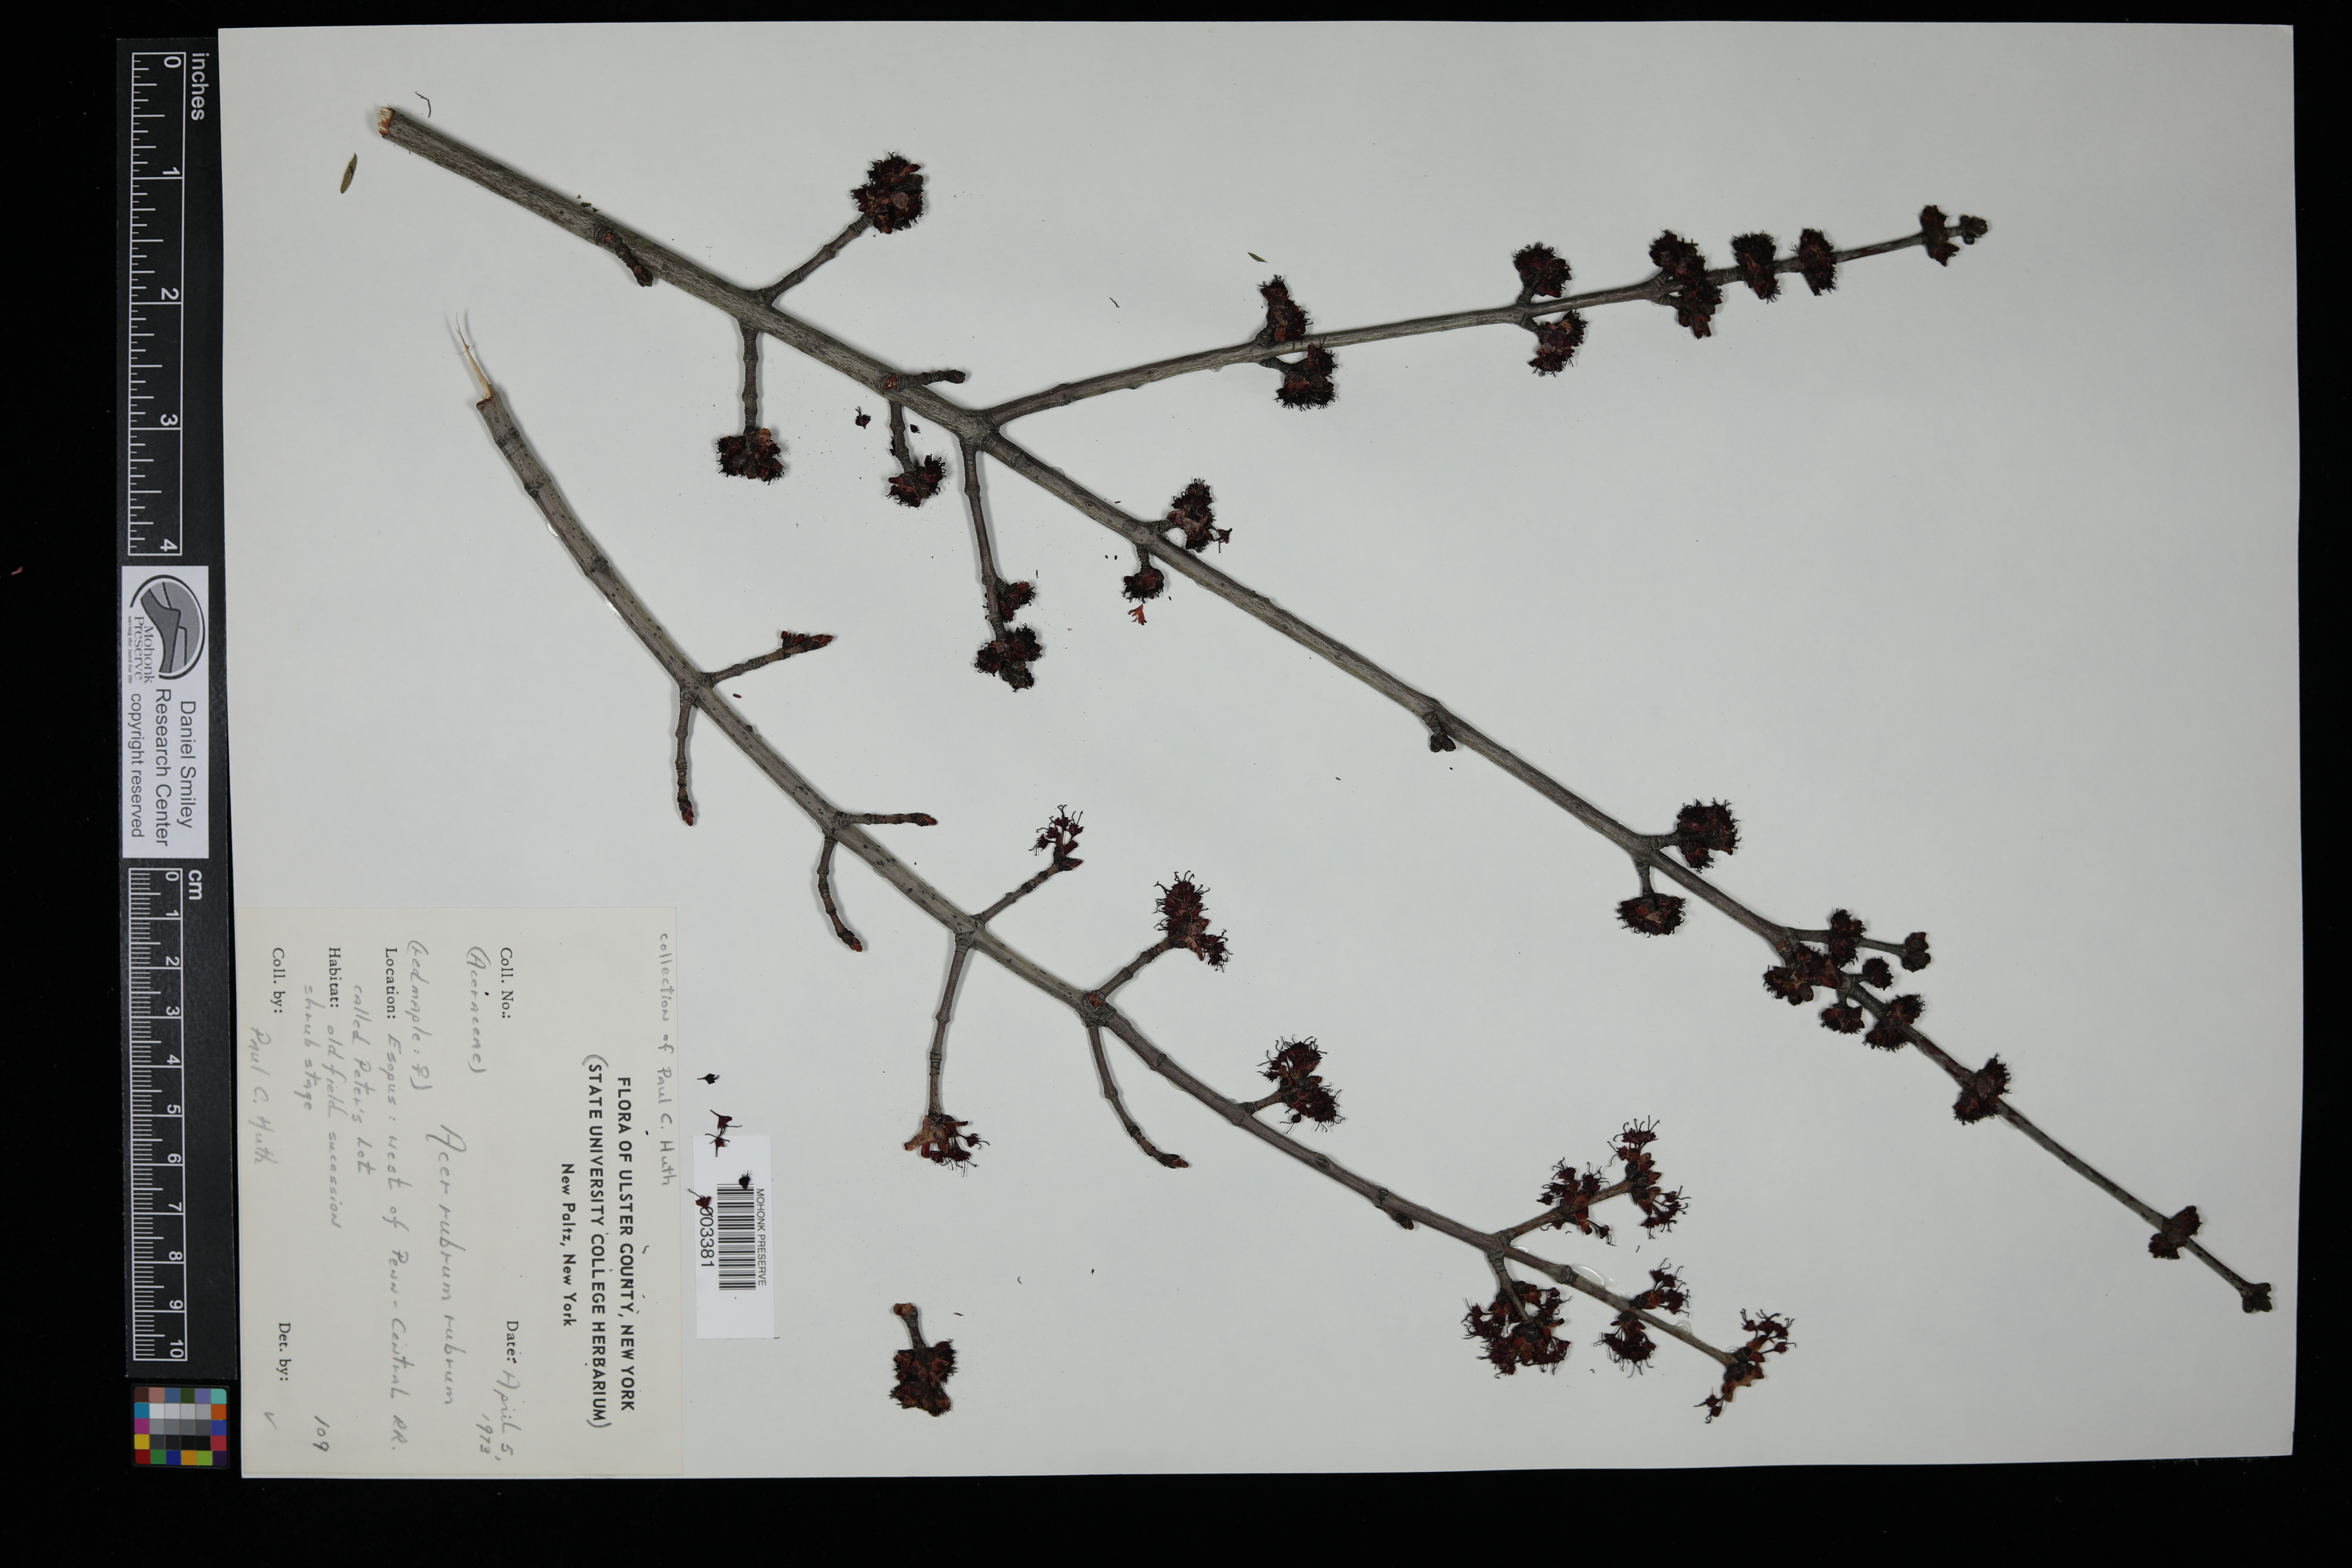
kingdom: Plantae
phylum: Tracheophyta
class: Magnoliopsida
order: Sapindales
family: Sapindaceae
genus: Acer
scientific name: Acer rubrum
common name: Red maple
